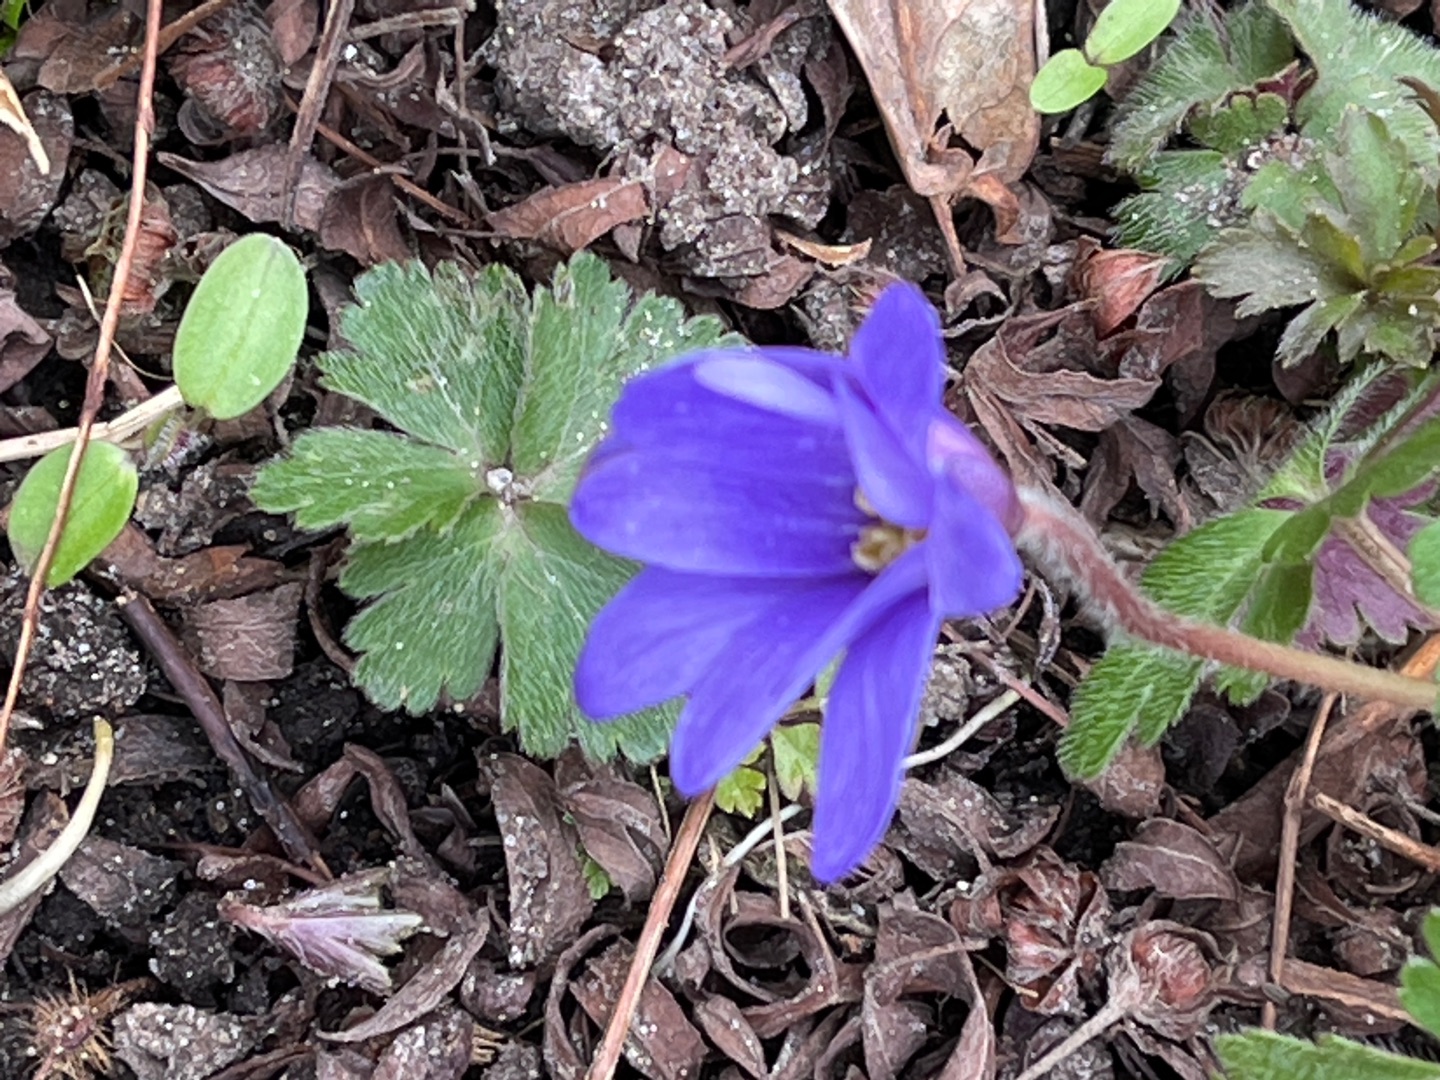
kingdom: Plantae
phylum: Tracheophyta
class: Magnoliopsida
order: Ranunculales
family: Ranunculaceae
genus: Anemone
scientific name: Anemone blanda
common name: Balkan-anemone
